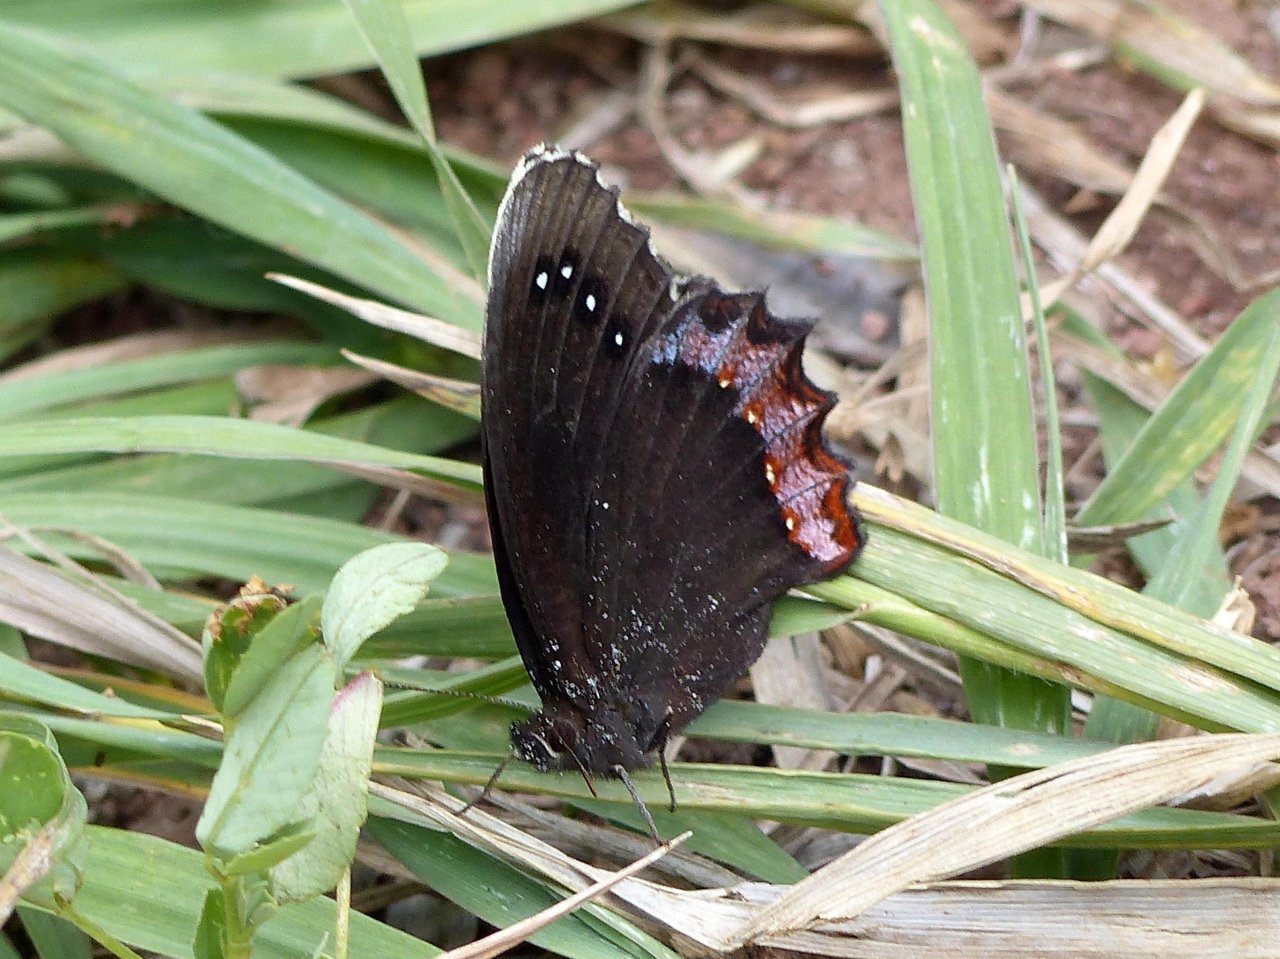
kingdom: Animalia
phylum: Arthropoda
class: Insecta
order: Lepidoptera
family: Nymphalidae
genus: Gyrocheilus
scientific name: Gyrocheilus patrobas
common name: Red-bordered Satyr
